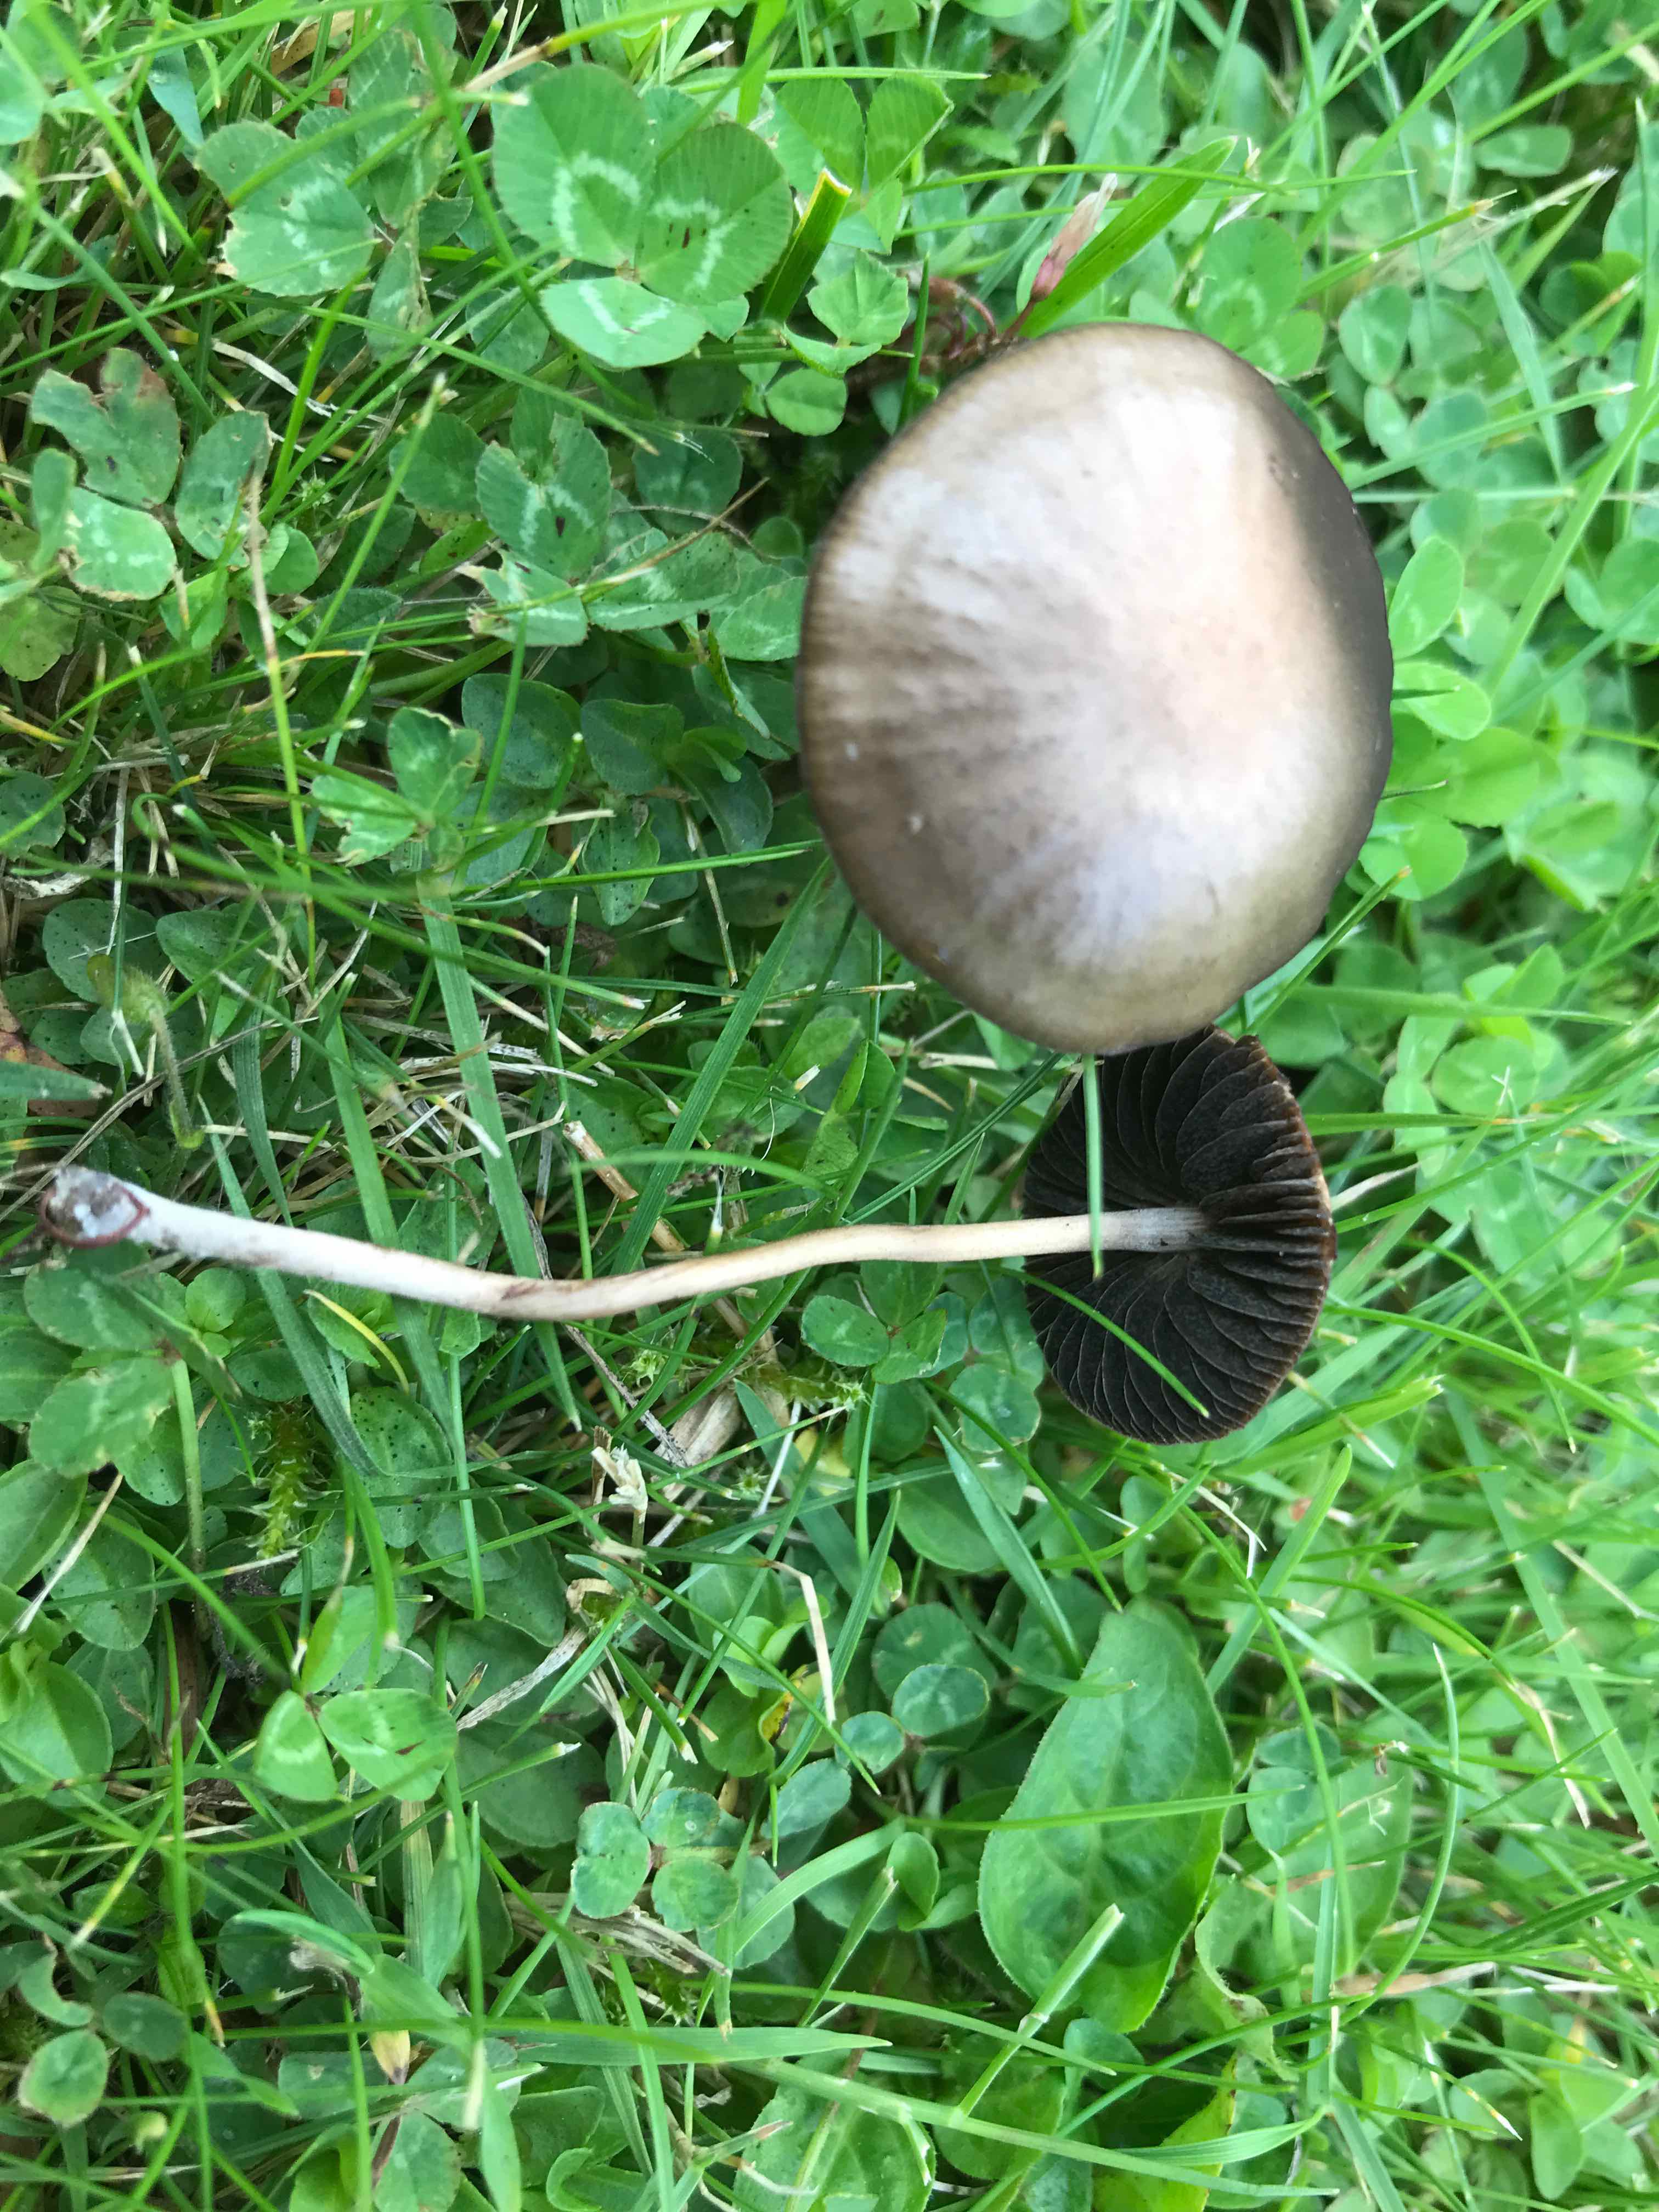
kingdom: Fungi
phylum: Basidiomycota
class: Agaricomycetes
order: Agaricales
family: Bolbitiaceae
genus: Panaeolina
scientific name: Panaeolina foenisecii
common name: høslætsvamp
